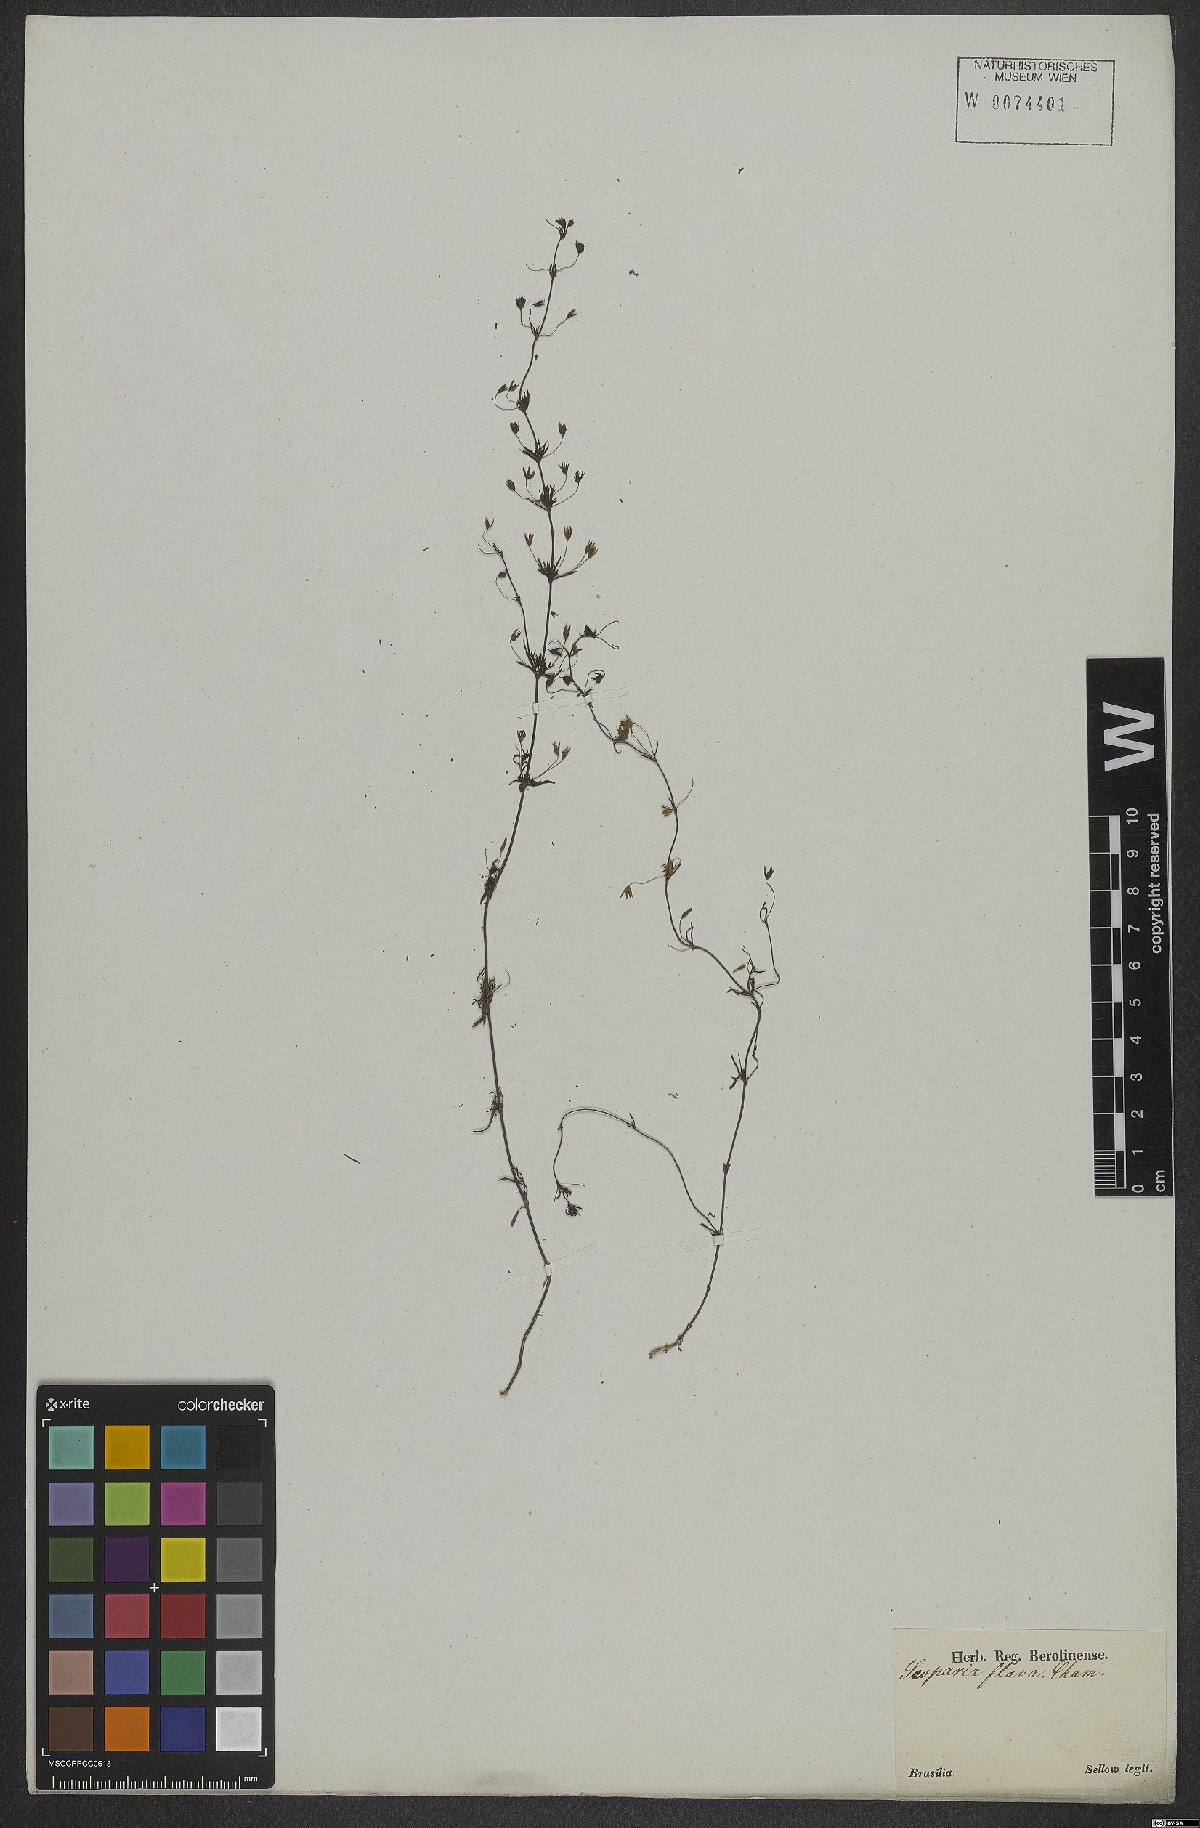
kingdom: Plantae
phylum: Tracheophyta
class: Magnoliopsida
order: Lamiales
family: Plantaginaceae
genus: Scoparia
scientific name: Scoparia montevidensis
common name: Broomwort
